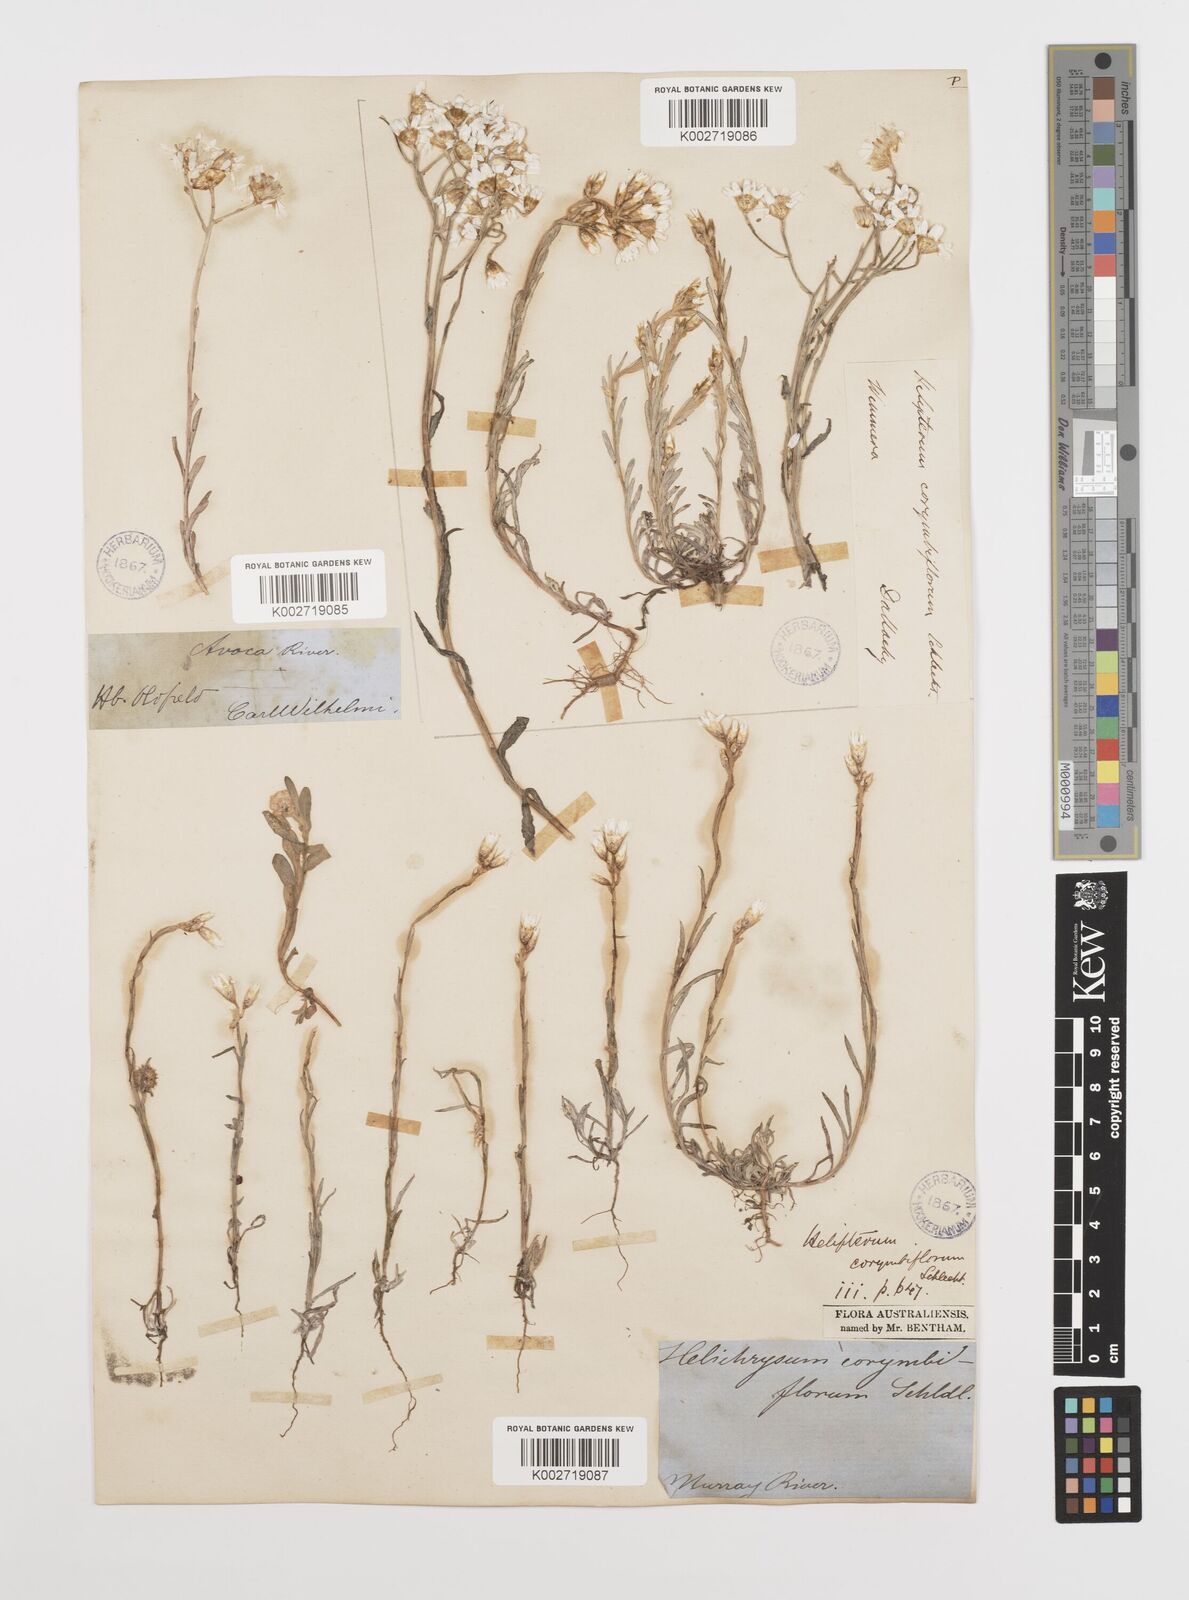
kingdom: Plantae
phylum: Tracheophyta
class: Magnoliopsida
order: Asterales
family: Asteraceae
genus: Rhodanthe
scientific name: Rhodanthe corymbiflora
